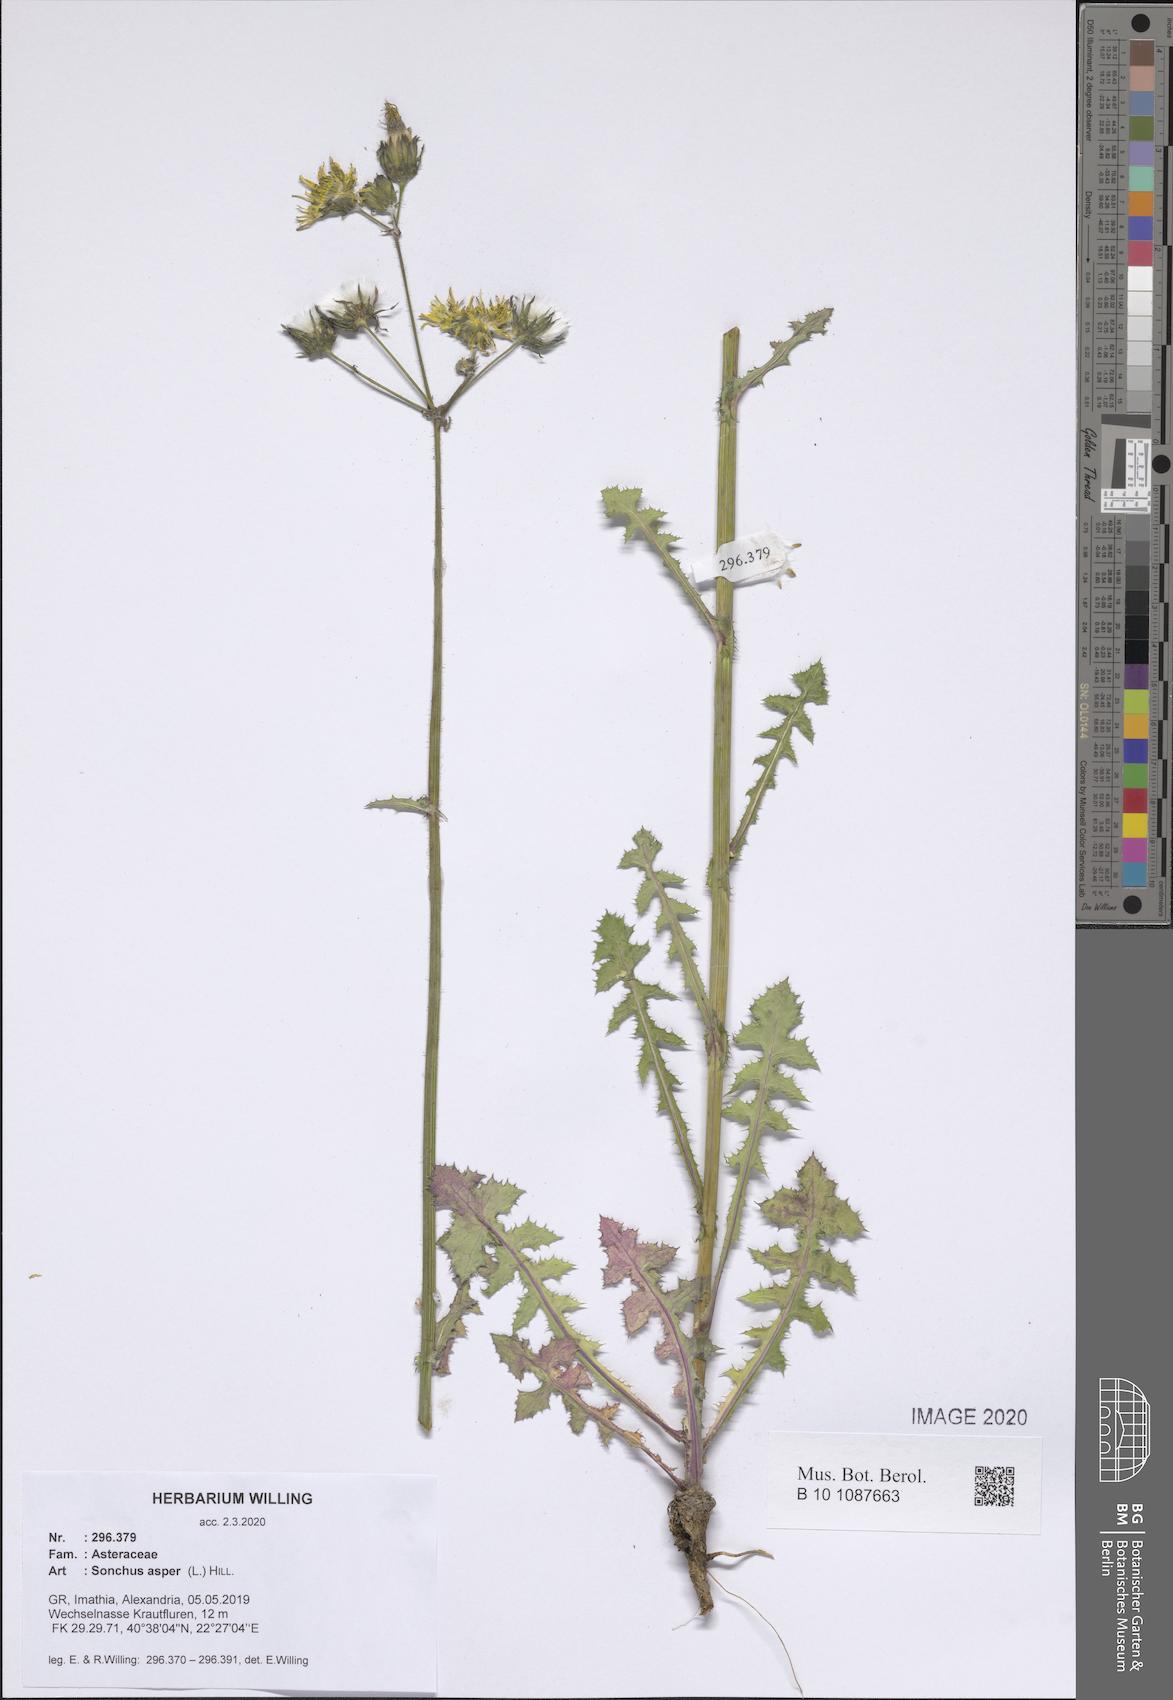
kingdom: Plantae
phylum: Tracheophyta
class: Magnoliopsida
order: Asterales
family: Asteraceae
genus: Sonchus
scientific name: Sonchus asper
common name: Prickly sow-thistle
